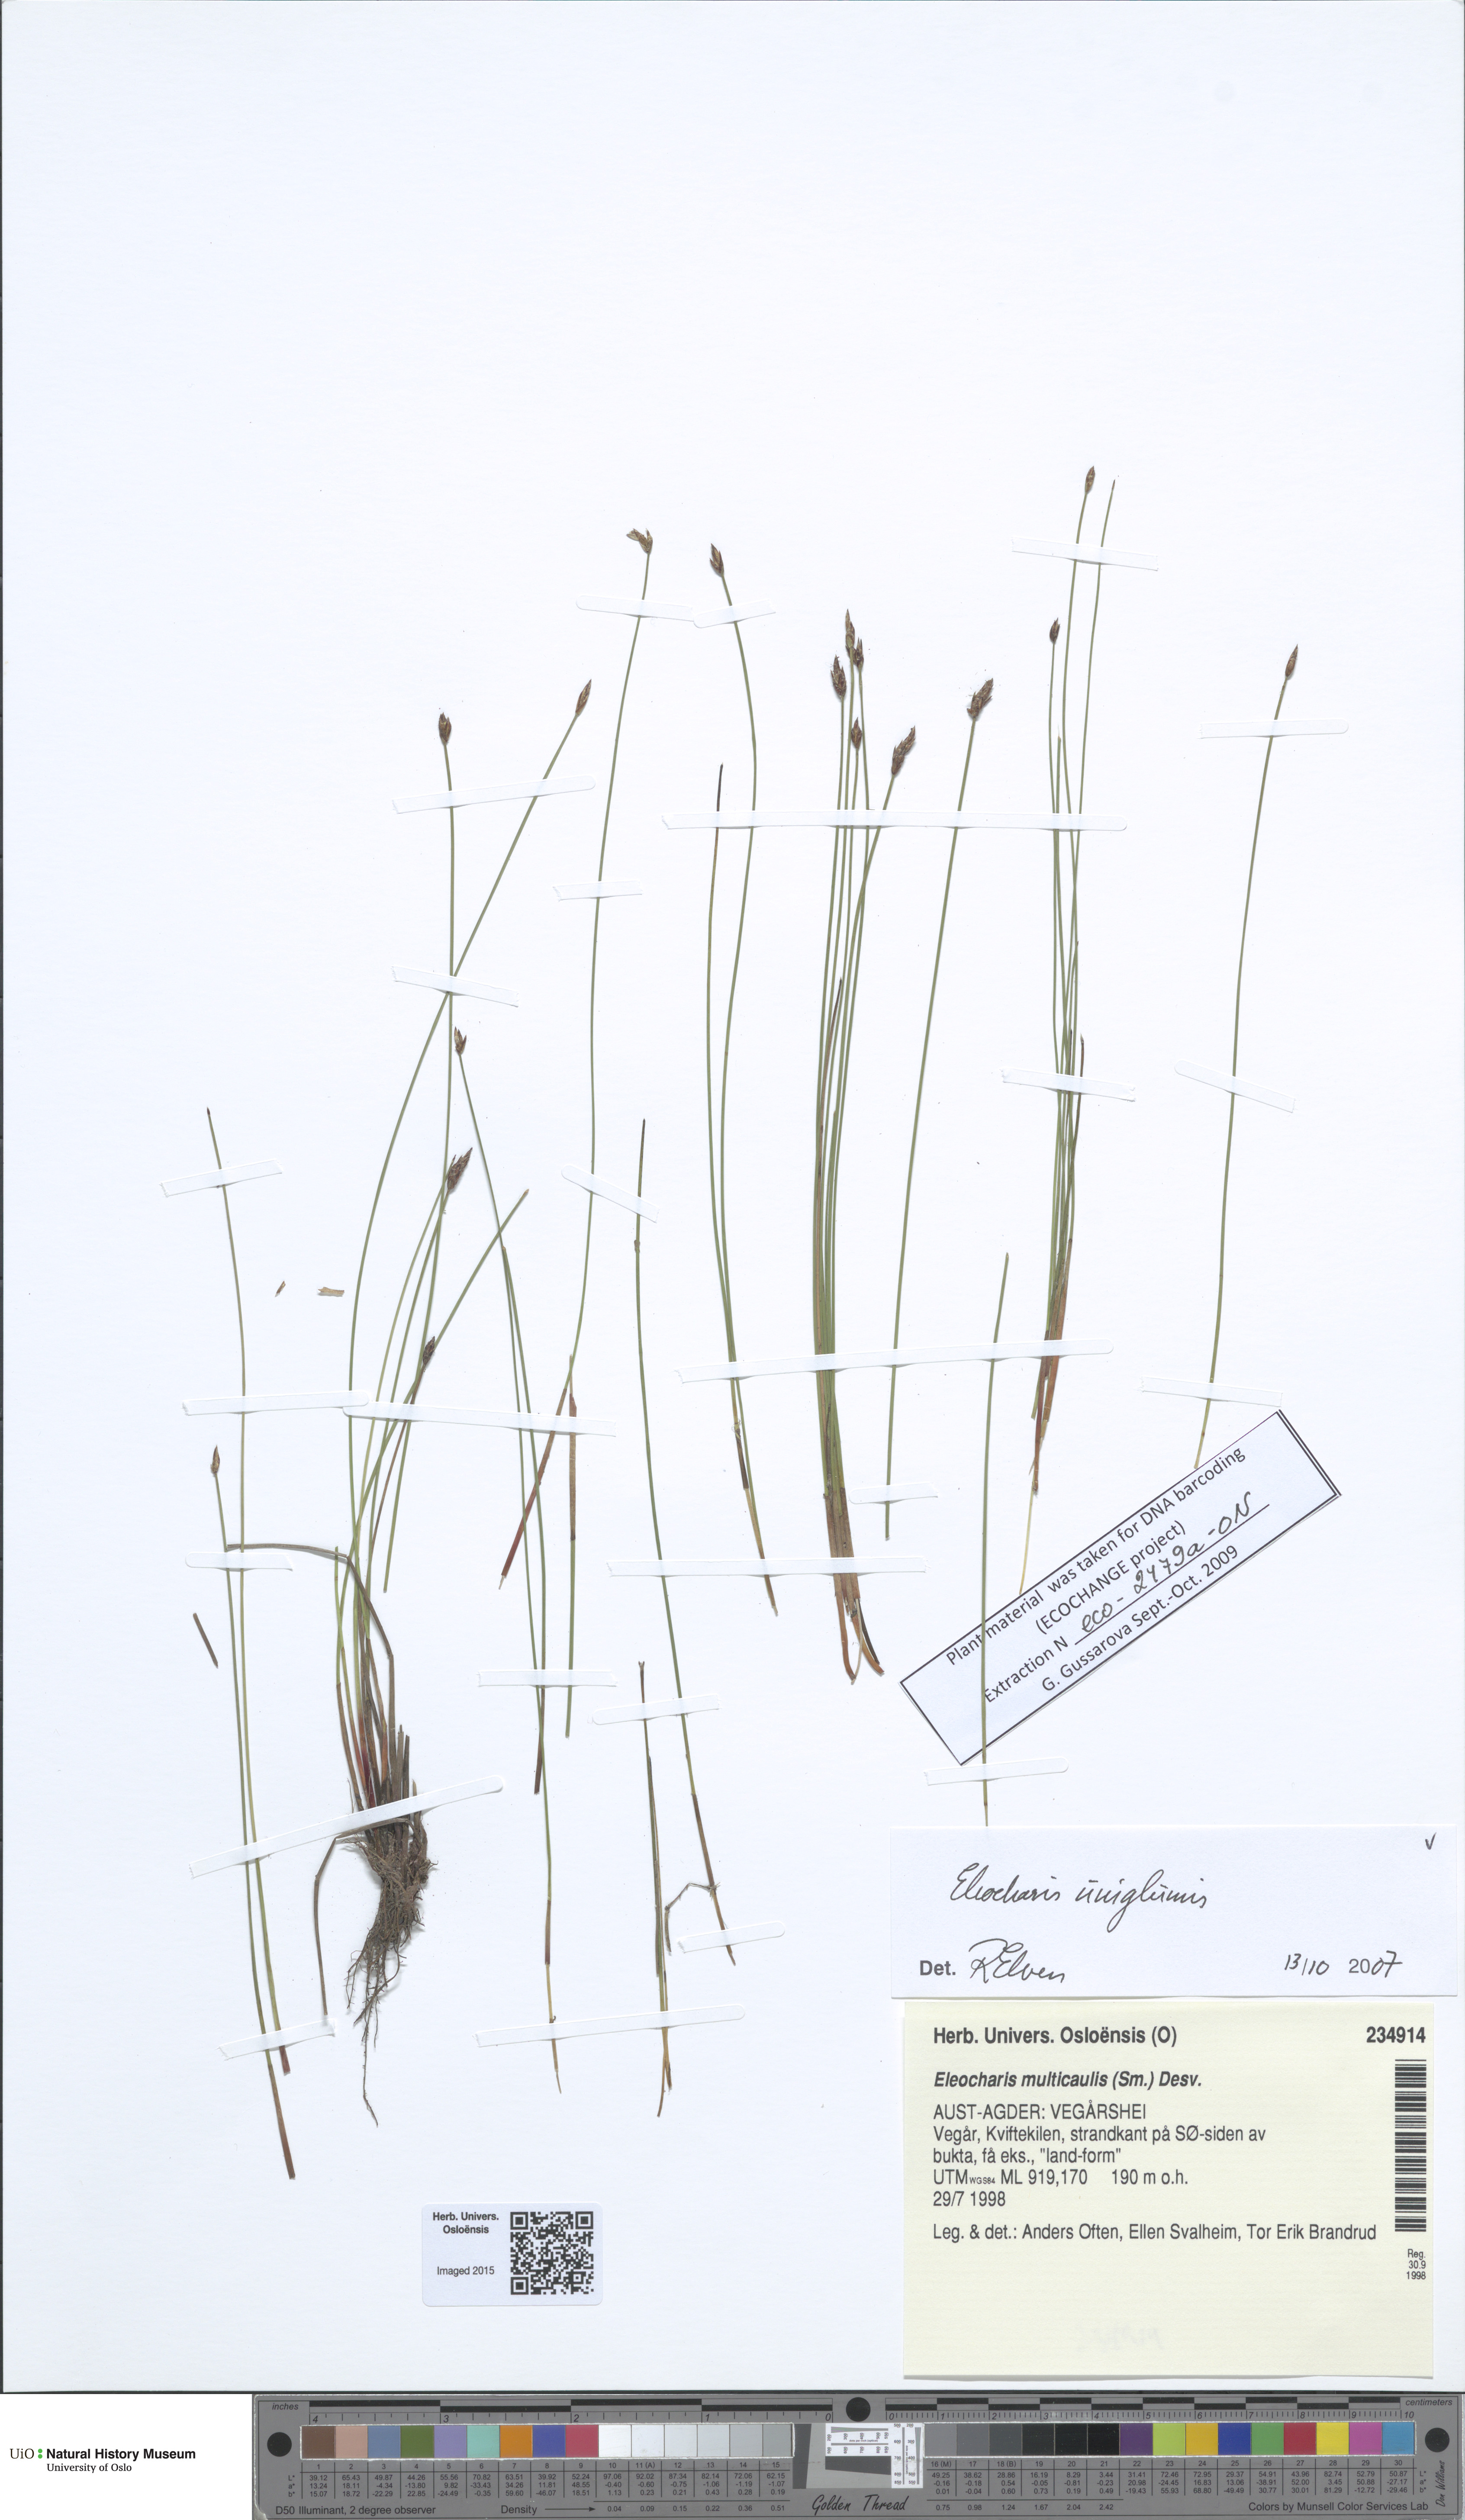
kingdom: Plantae
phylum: Tracheophyta
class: Liliopsida
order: Poales
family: Cyperaceae
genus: Eleocharis
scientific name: Eleocharis uniglumis
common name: Slender spike-rush
